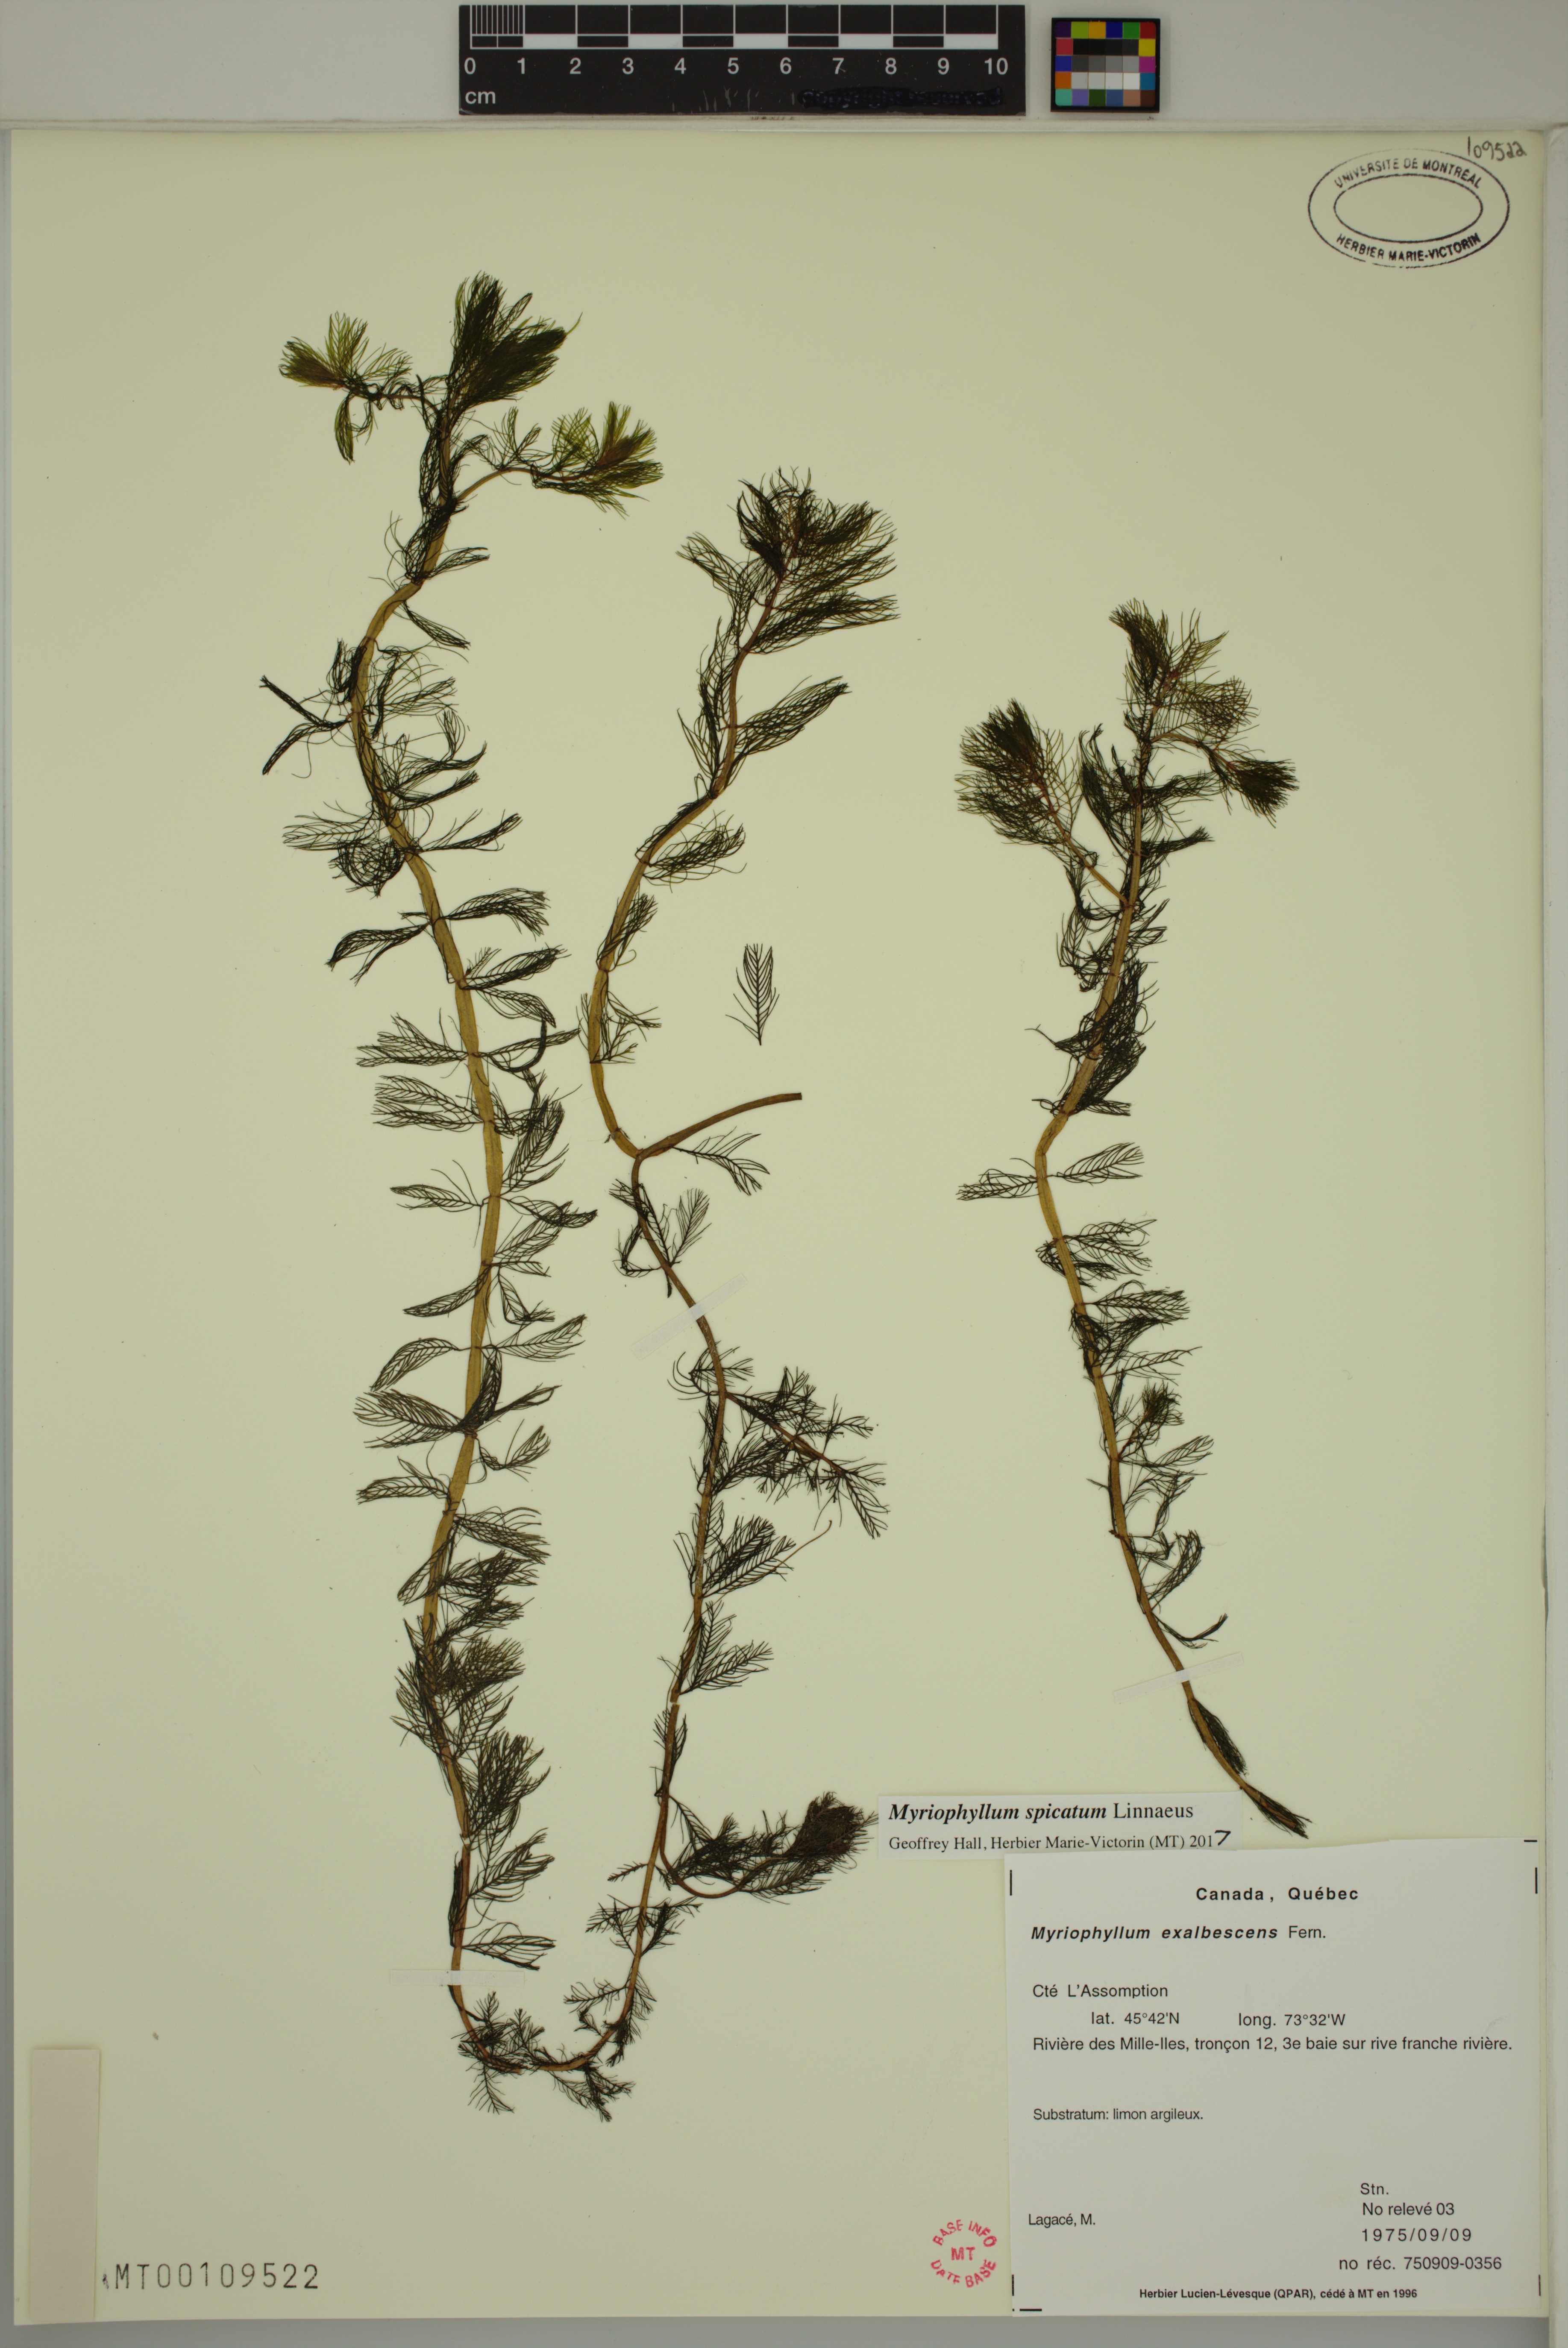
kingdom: Plantae
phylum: Tracheophyta
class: Magnoliopsida
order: Saxifragales
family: Haloragaceae
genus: Myriophyllum
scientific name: Myriophyllum spicatum
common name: Spiked water-milfoil
